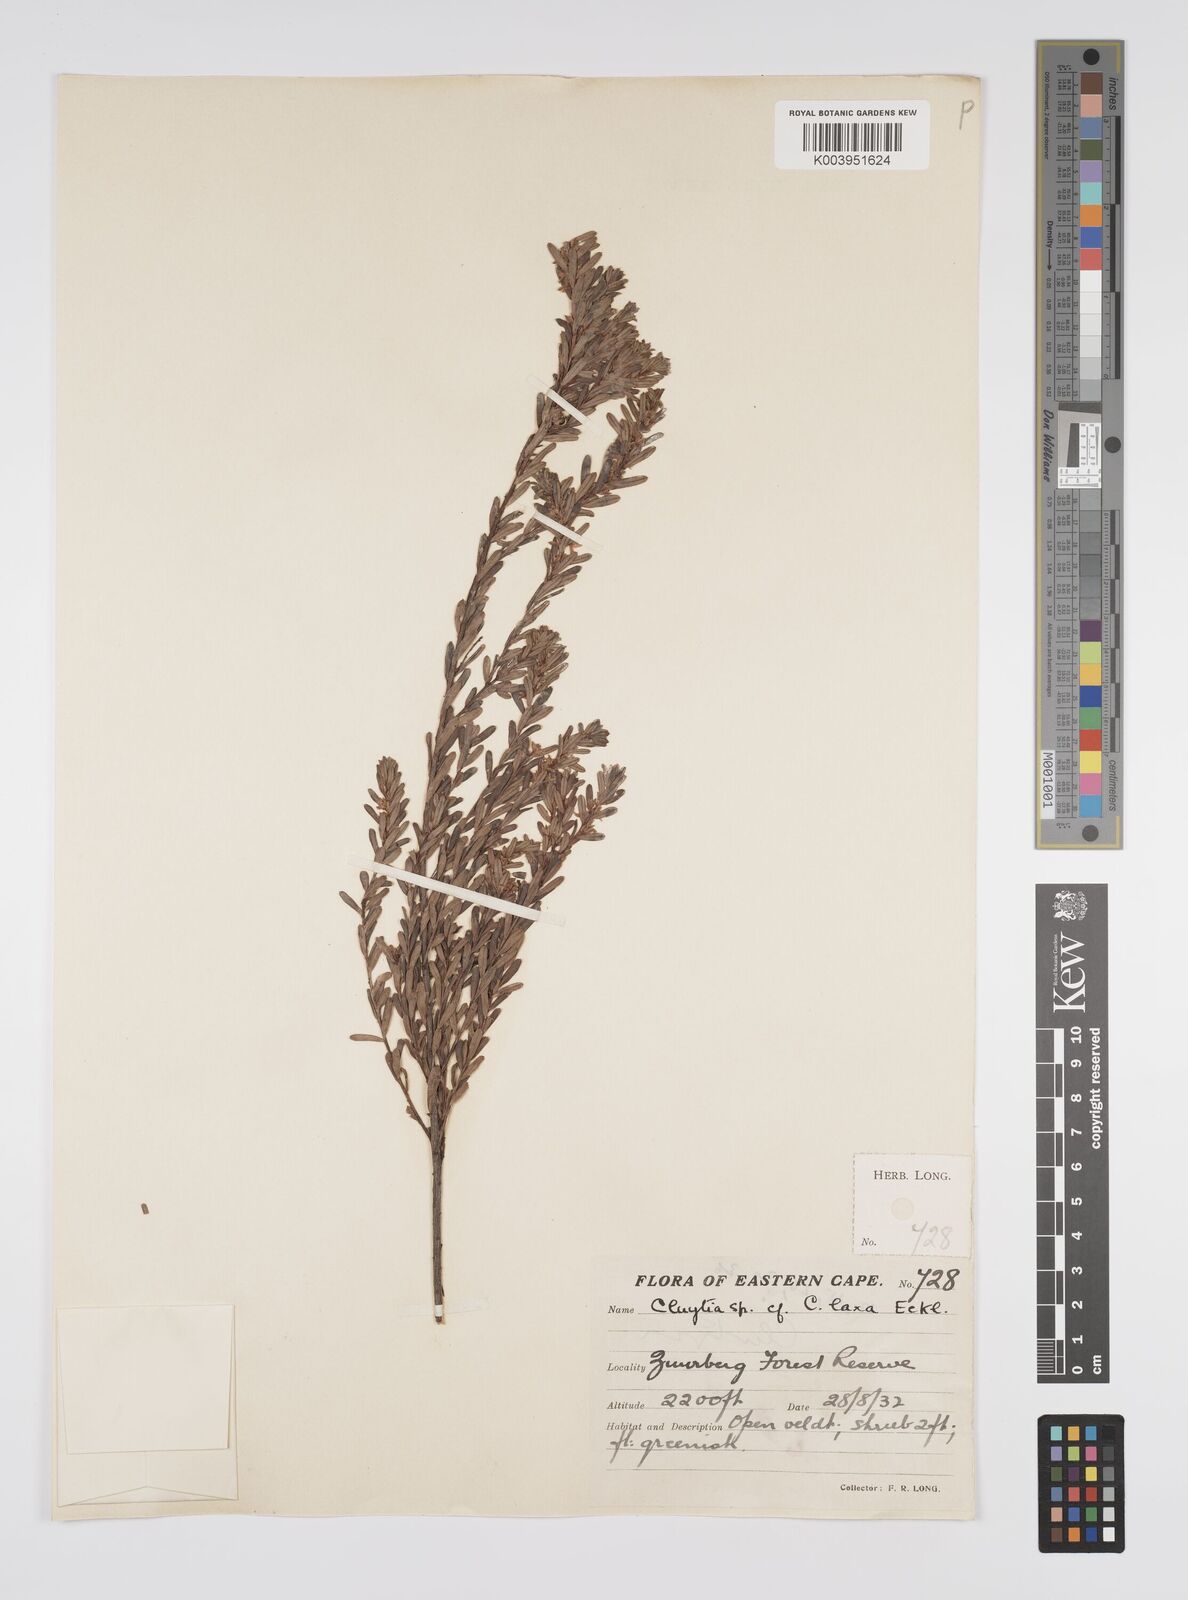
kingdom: Plantae
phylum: Tracheophyta
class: Magnoliopsida
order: Malpighiales
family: Peraceae
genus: Clutia
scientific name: Clutia laxa
